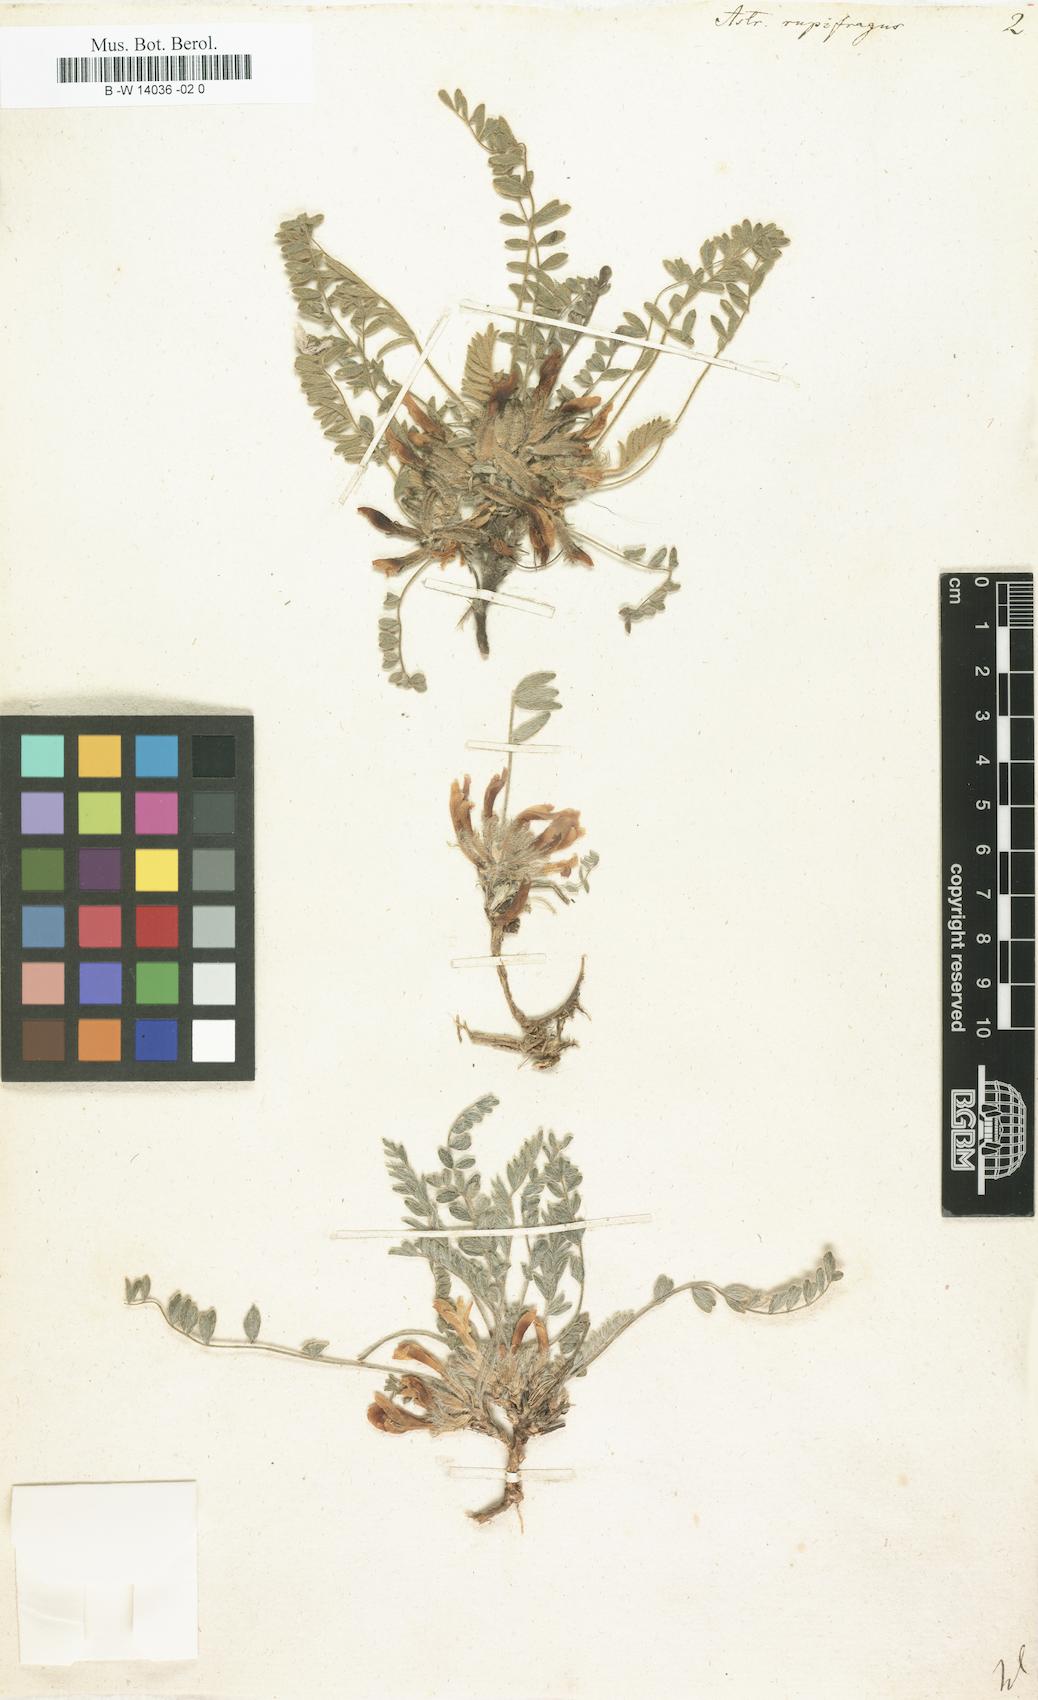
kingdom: Plantae
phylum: Tracheophyta
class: Magnoliopsida
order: Fabales
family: Fabaceae
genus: Astragalus
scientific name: Astragalus rupifragus
